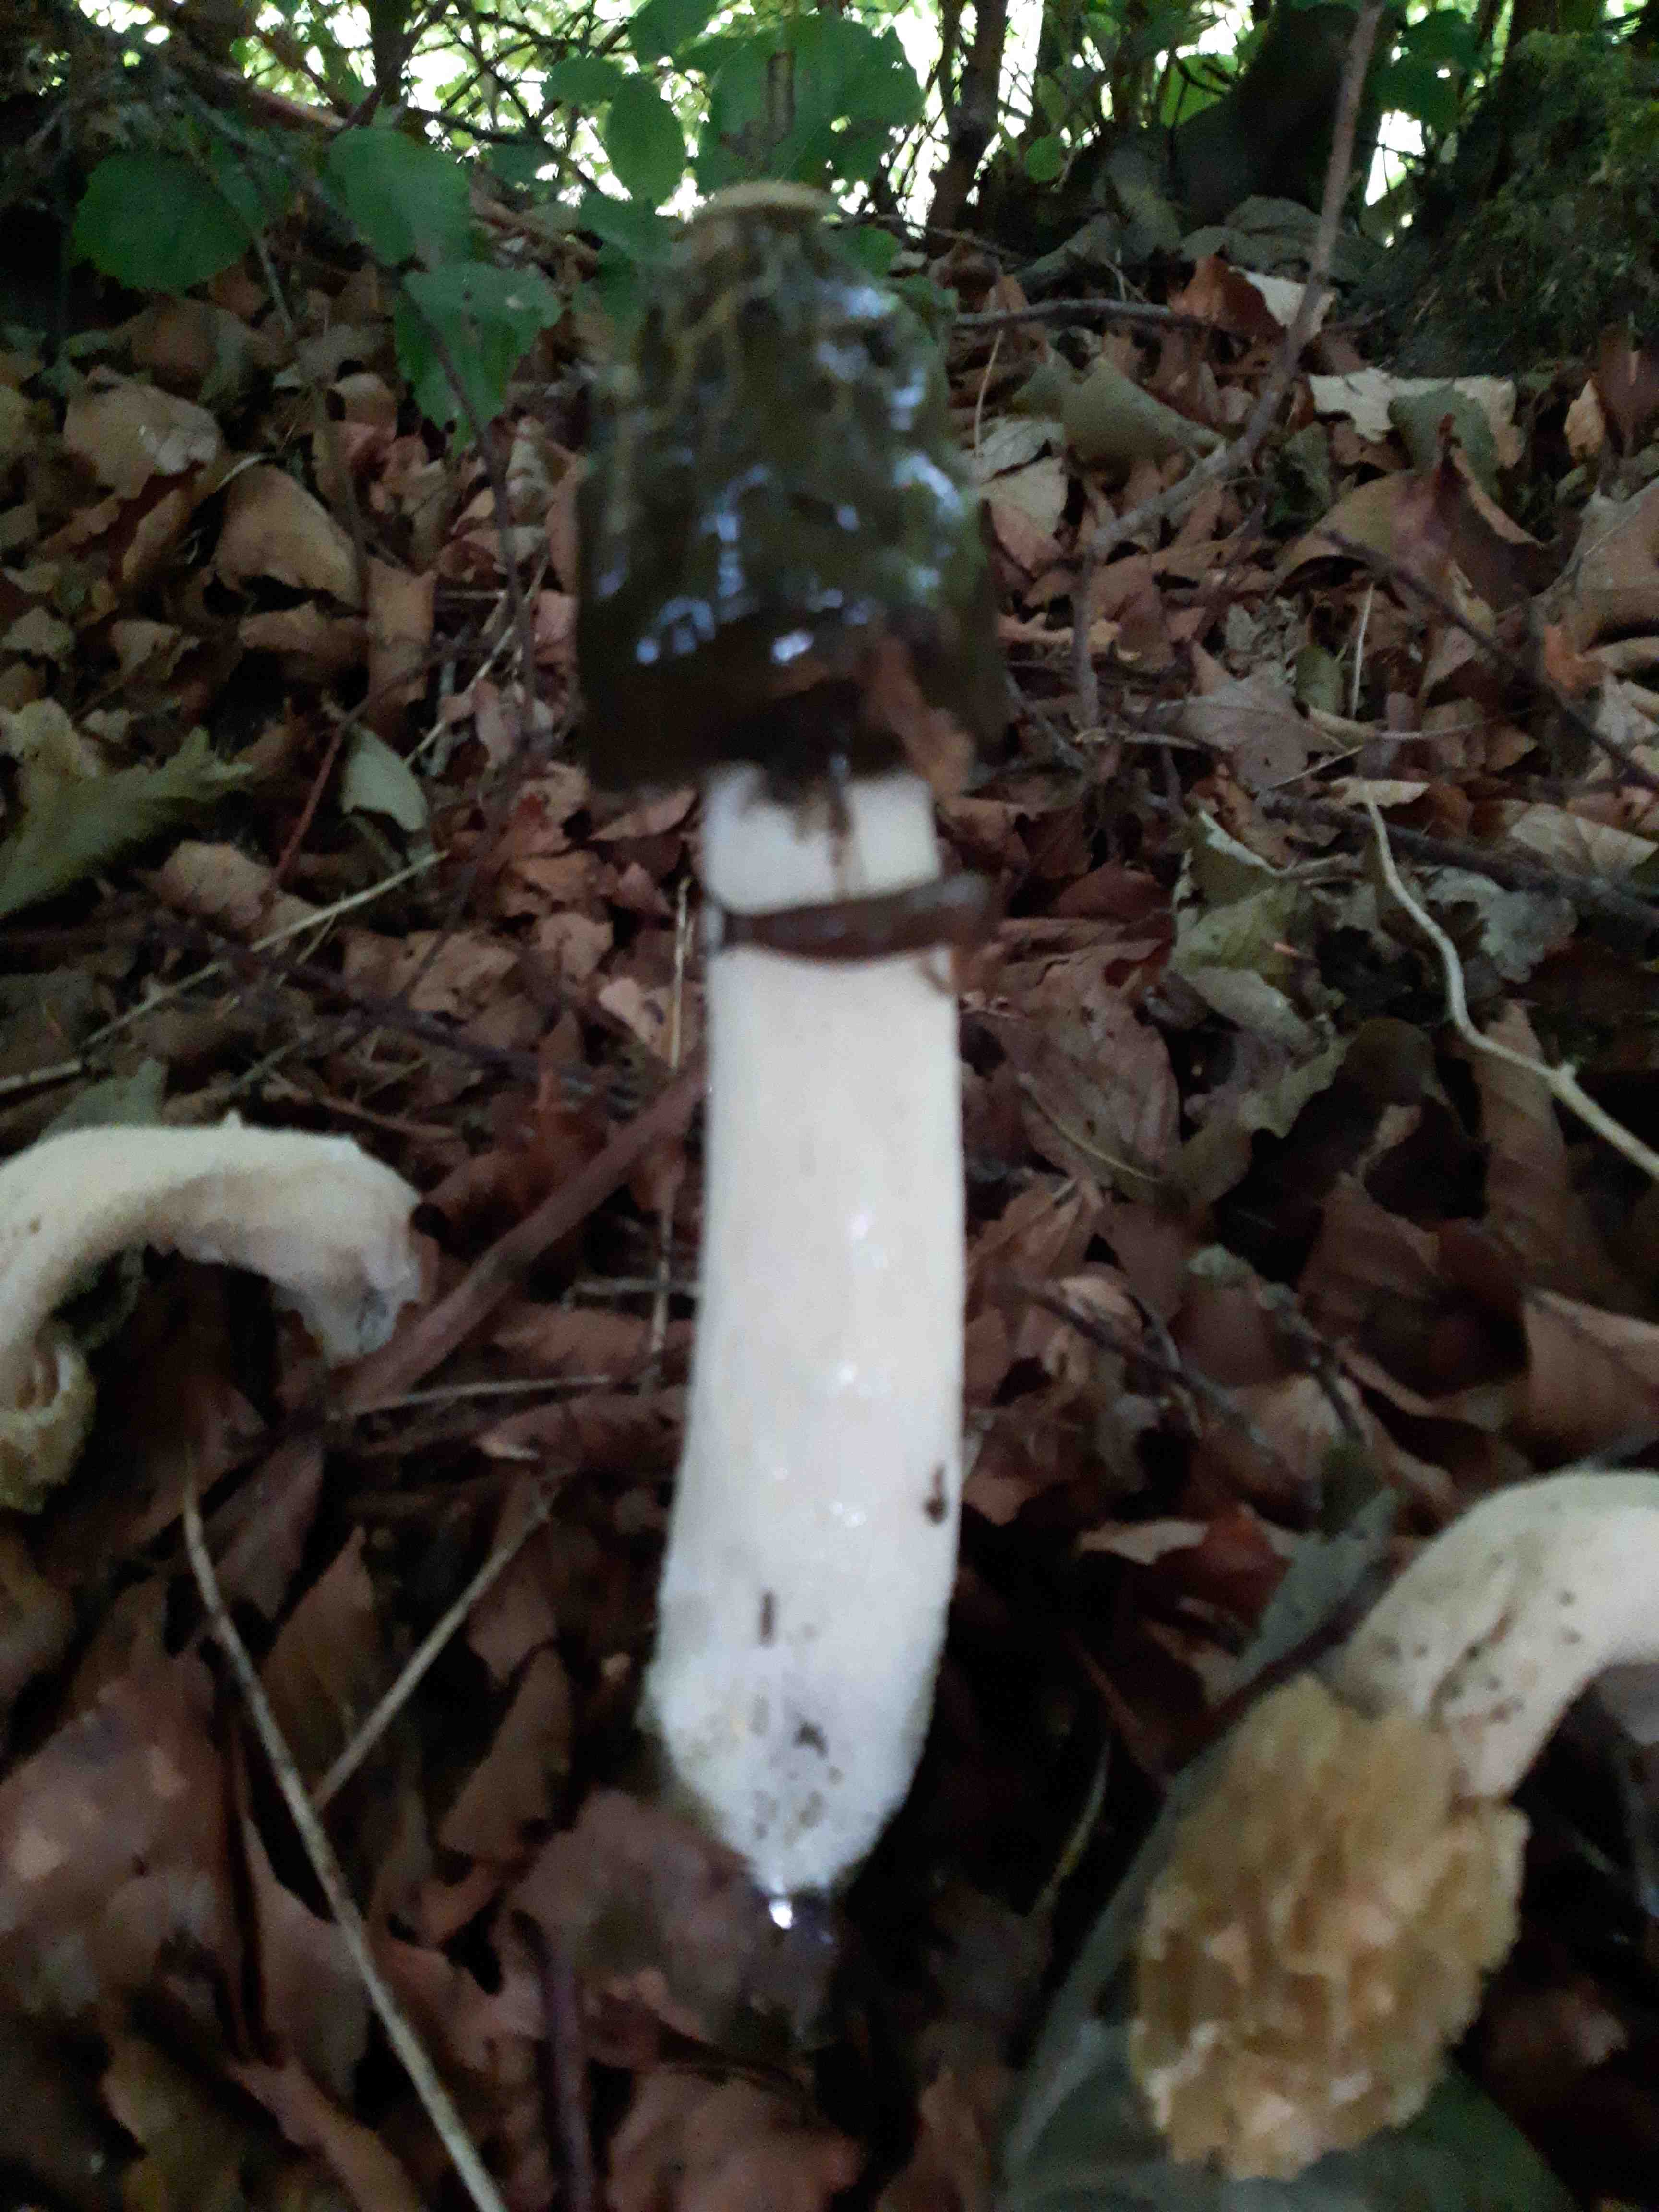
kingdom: Fungi
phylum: Basidiomycota
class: Agaricomycetes
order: Phallales
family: Phallaceae
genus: Phallus
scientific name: Phallus impudicus
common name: almindelig stinksvamp
